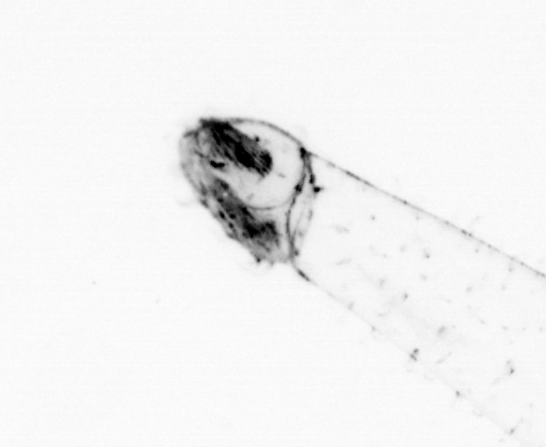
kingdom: Animalia
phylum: Chaetognatha
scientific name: Chaetognatha
